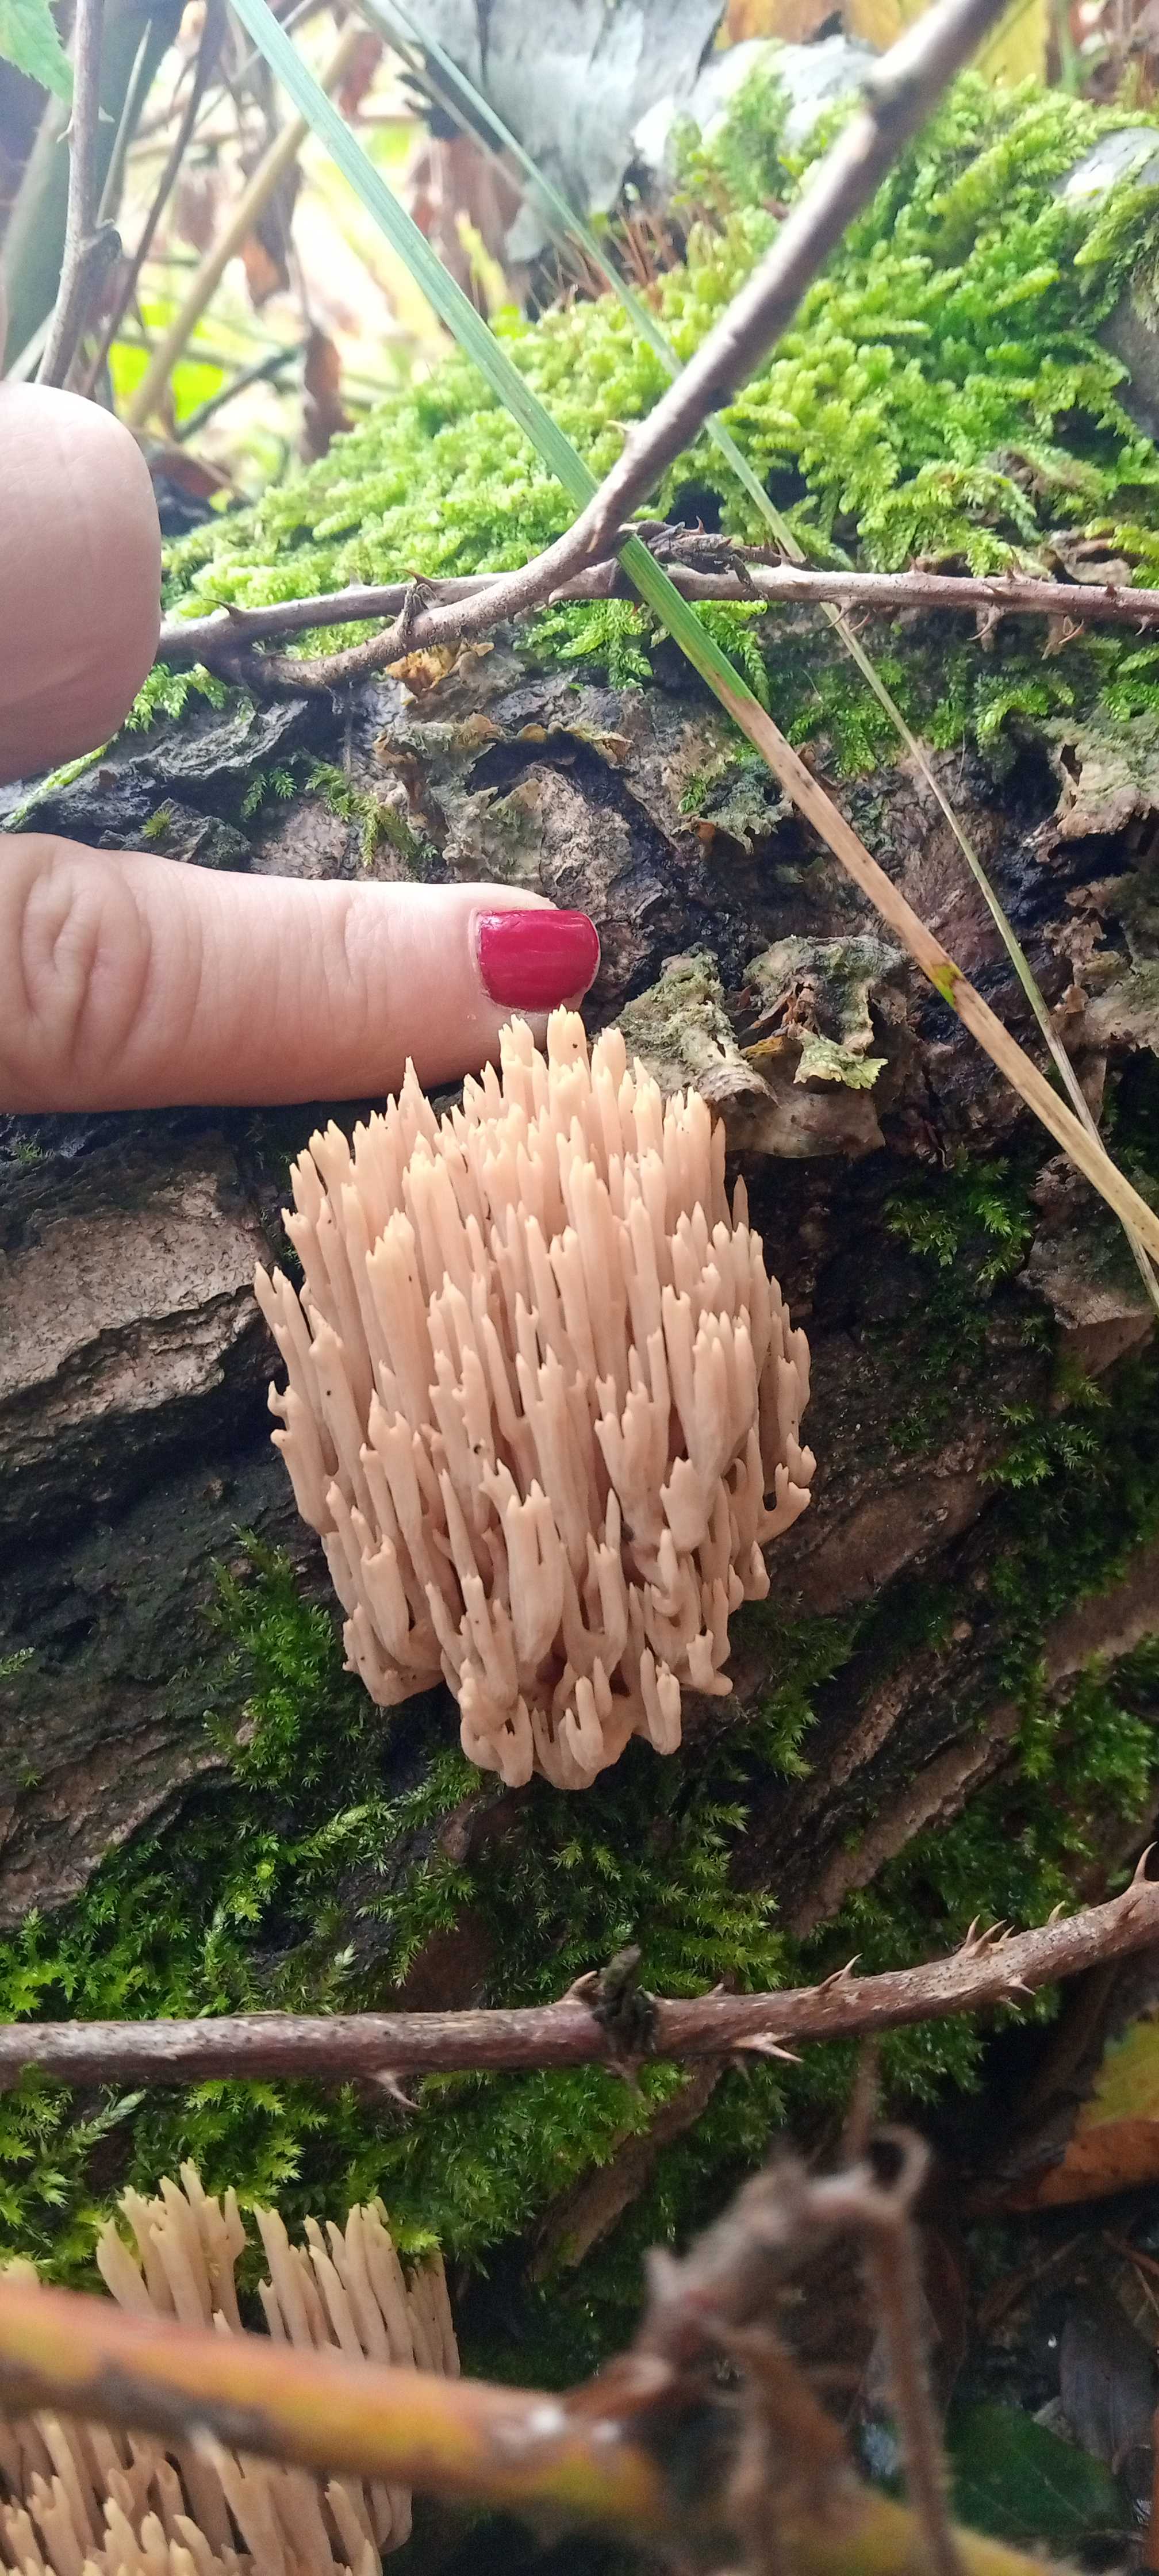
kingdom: Fungi
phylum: Basidiomycota
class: Agaricomycetes
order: Gomphales
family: Gomphaceae
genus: Ramaria
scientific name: Ramaria stricta
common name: rank koralsvamp
